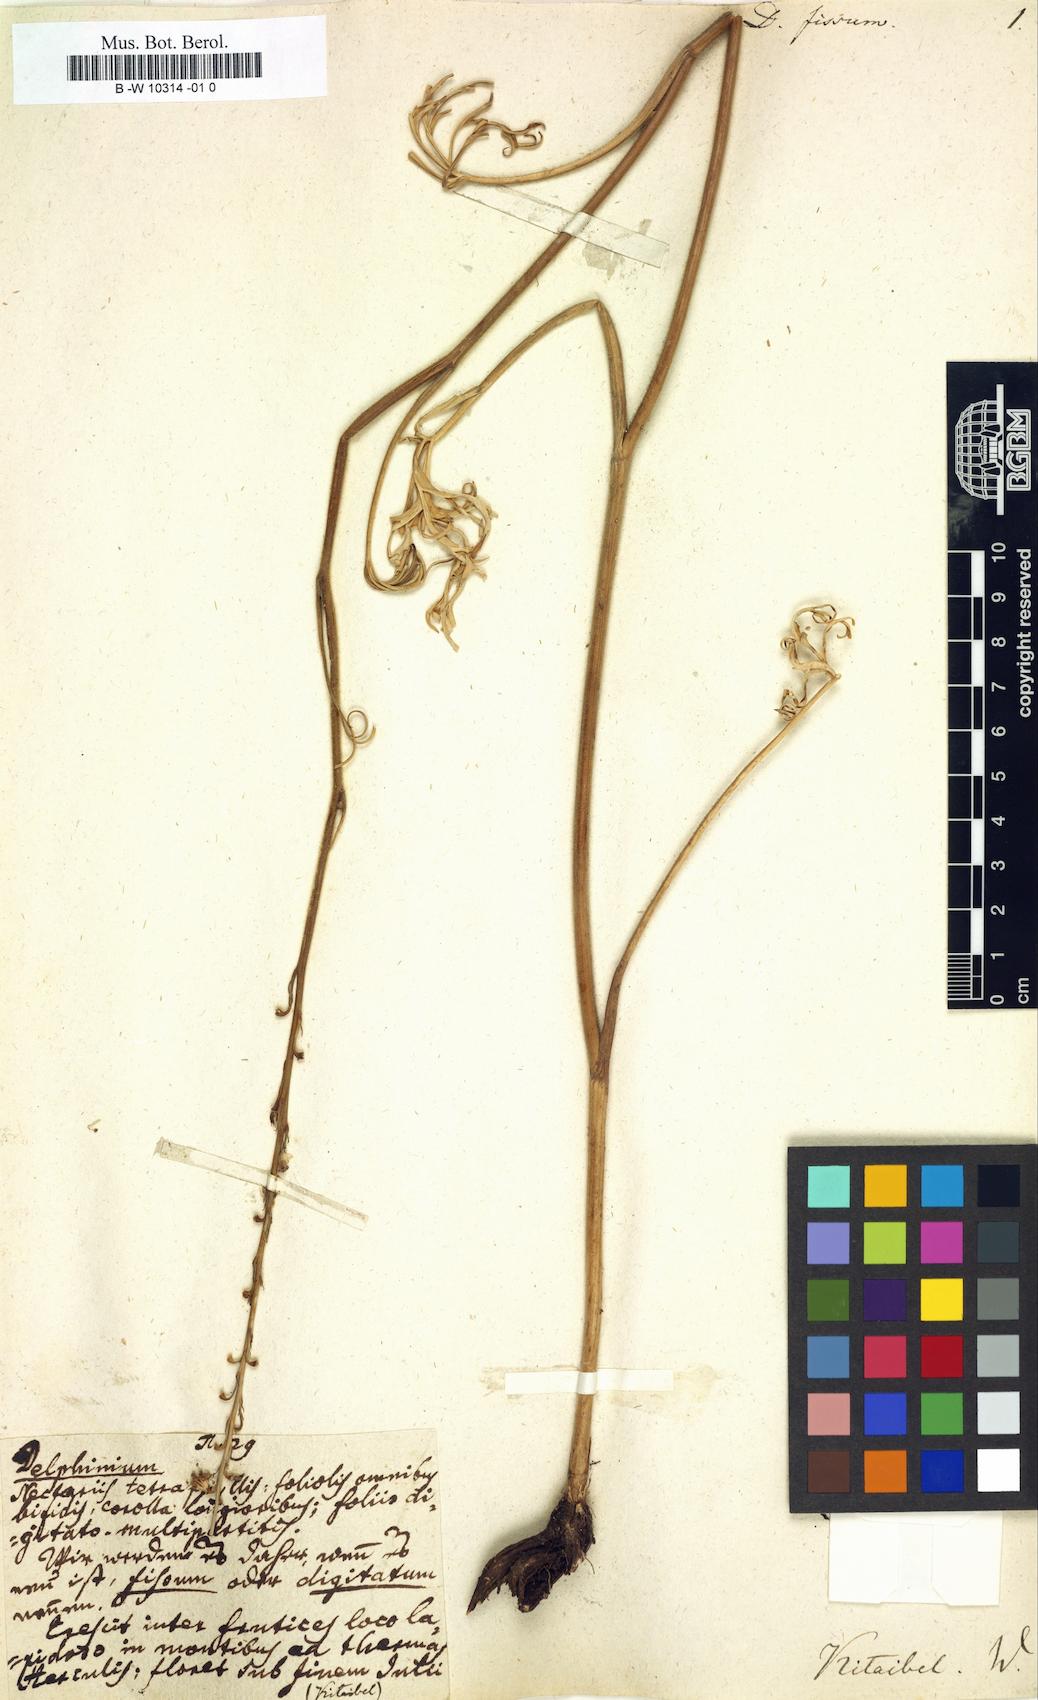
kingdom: Plantae
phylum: Tracheophyta
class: Magnoliopsida
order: Ranunculales
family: Ranunculaceae
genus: Delphinium
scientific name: Delphinium fissum
